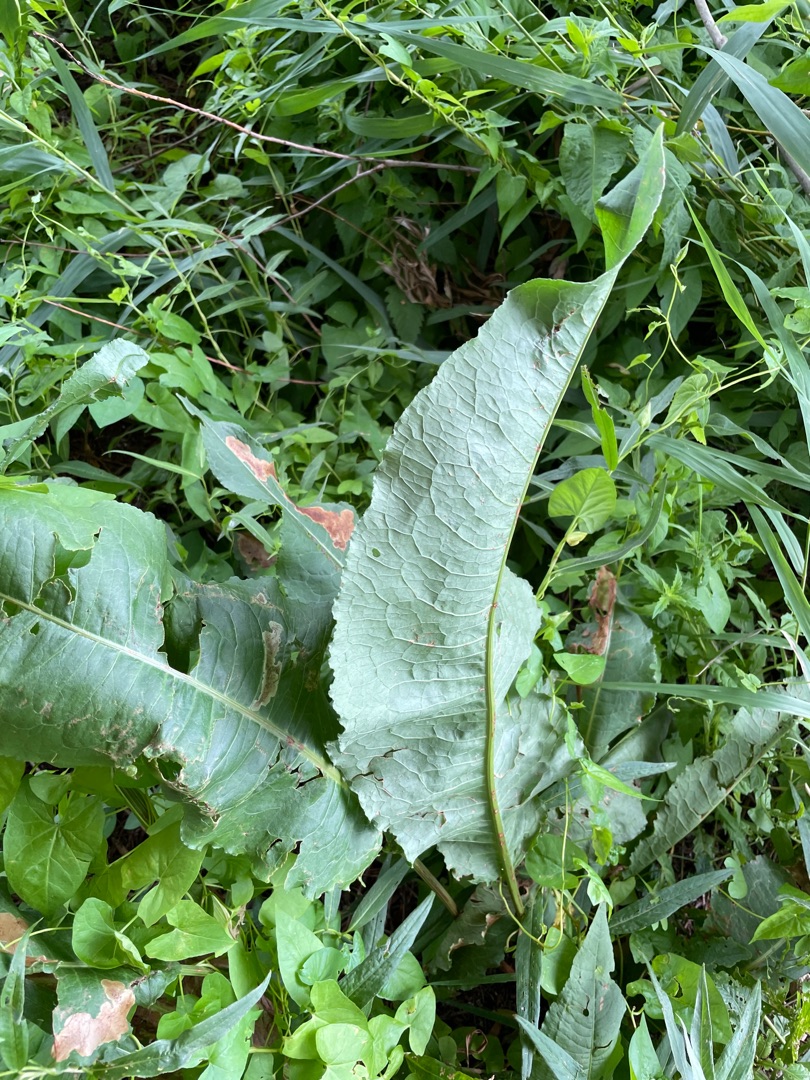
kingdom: Plantae
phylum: Tracheophyta
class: Magnoliopsida
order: Caryophyllales
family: Polygonaceae
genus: Rumex
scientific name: Rumex hydrolapathum
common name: Vand-skræppe
